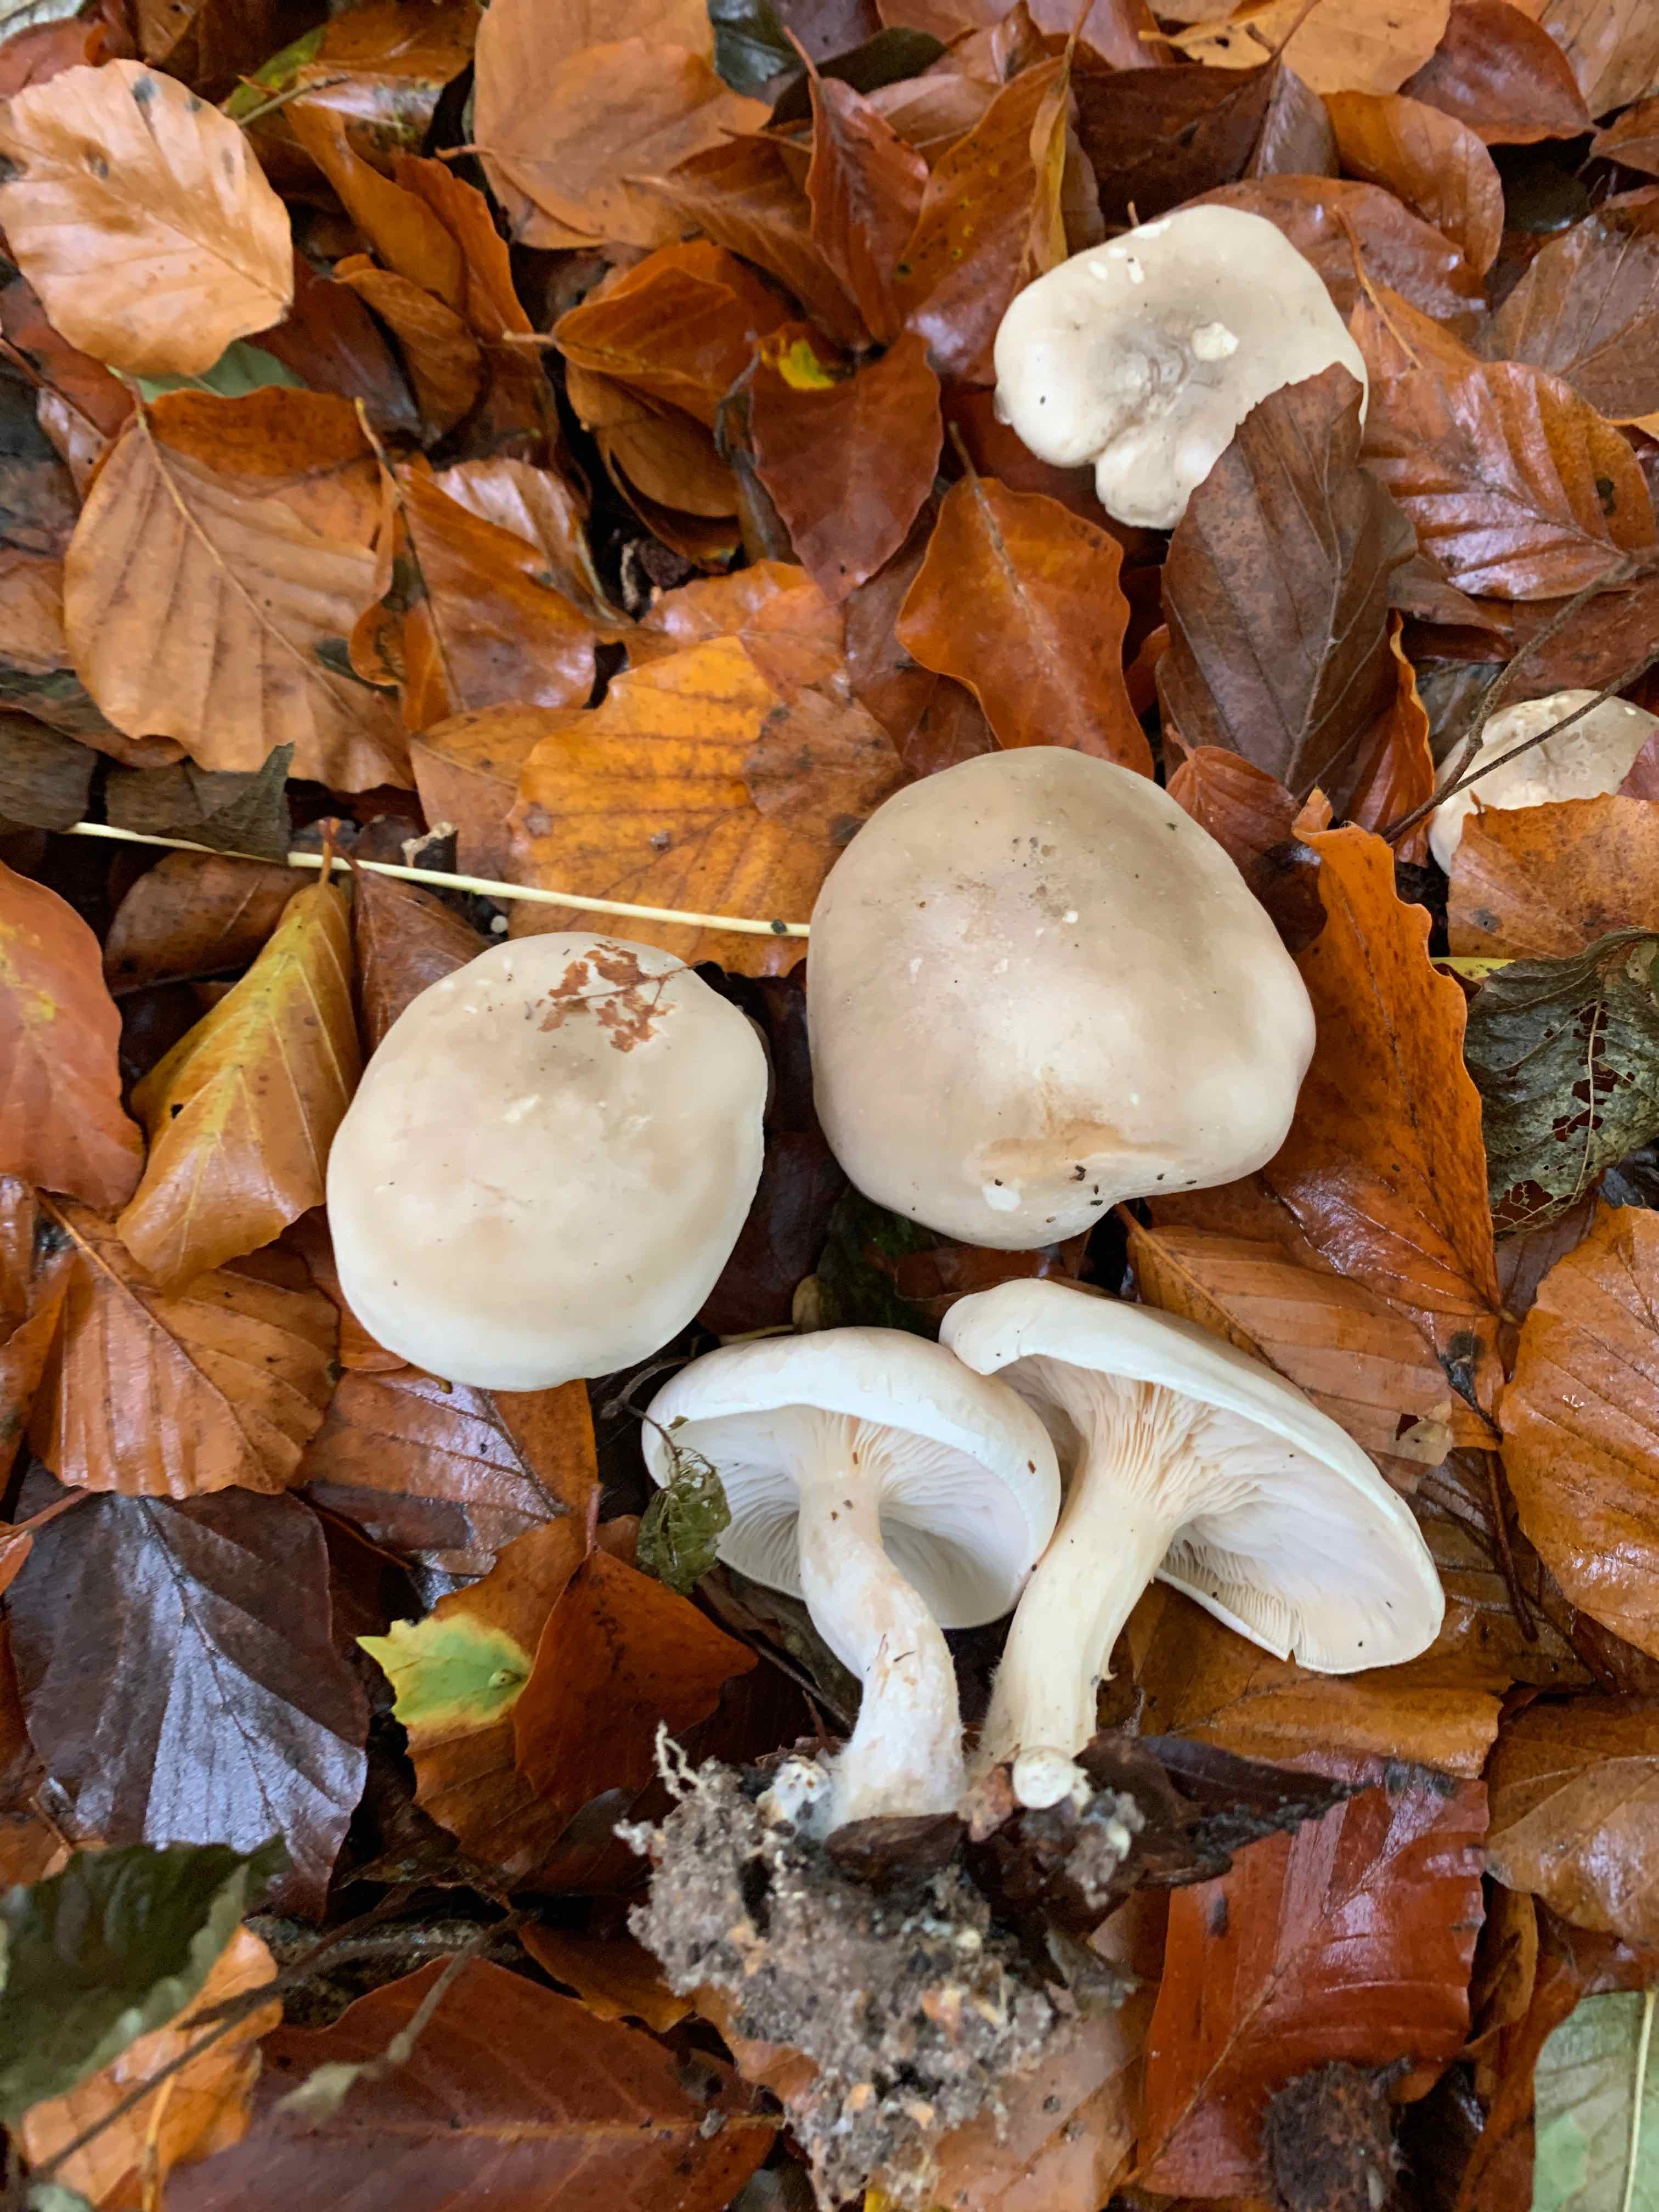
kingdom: Fungi
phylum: Basidiomycota
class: Agaricomycetes
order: Agaricales
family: Tricholomataceae
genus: Clitocybe
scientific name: Clitocybe nebularis
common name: tåge-tragthat
